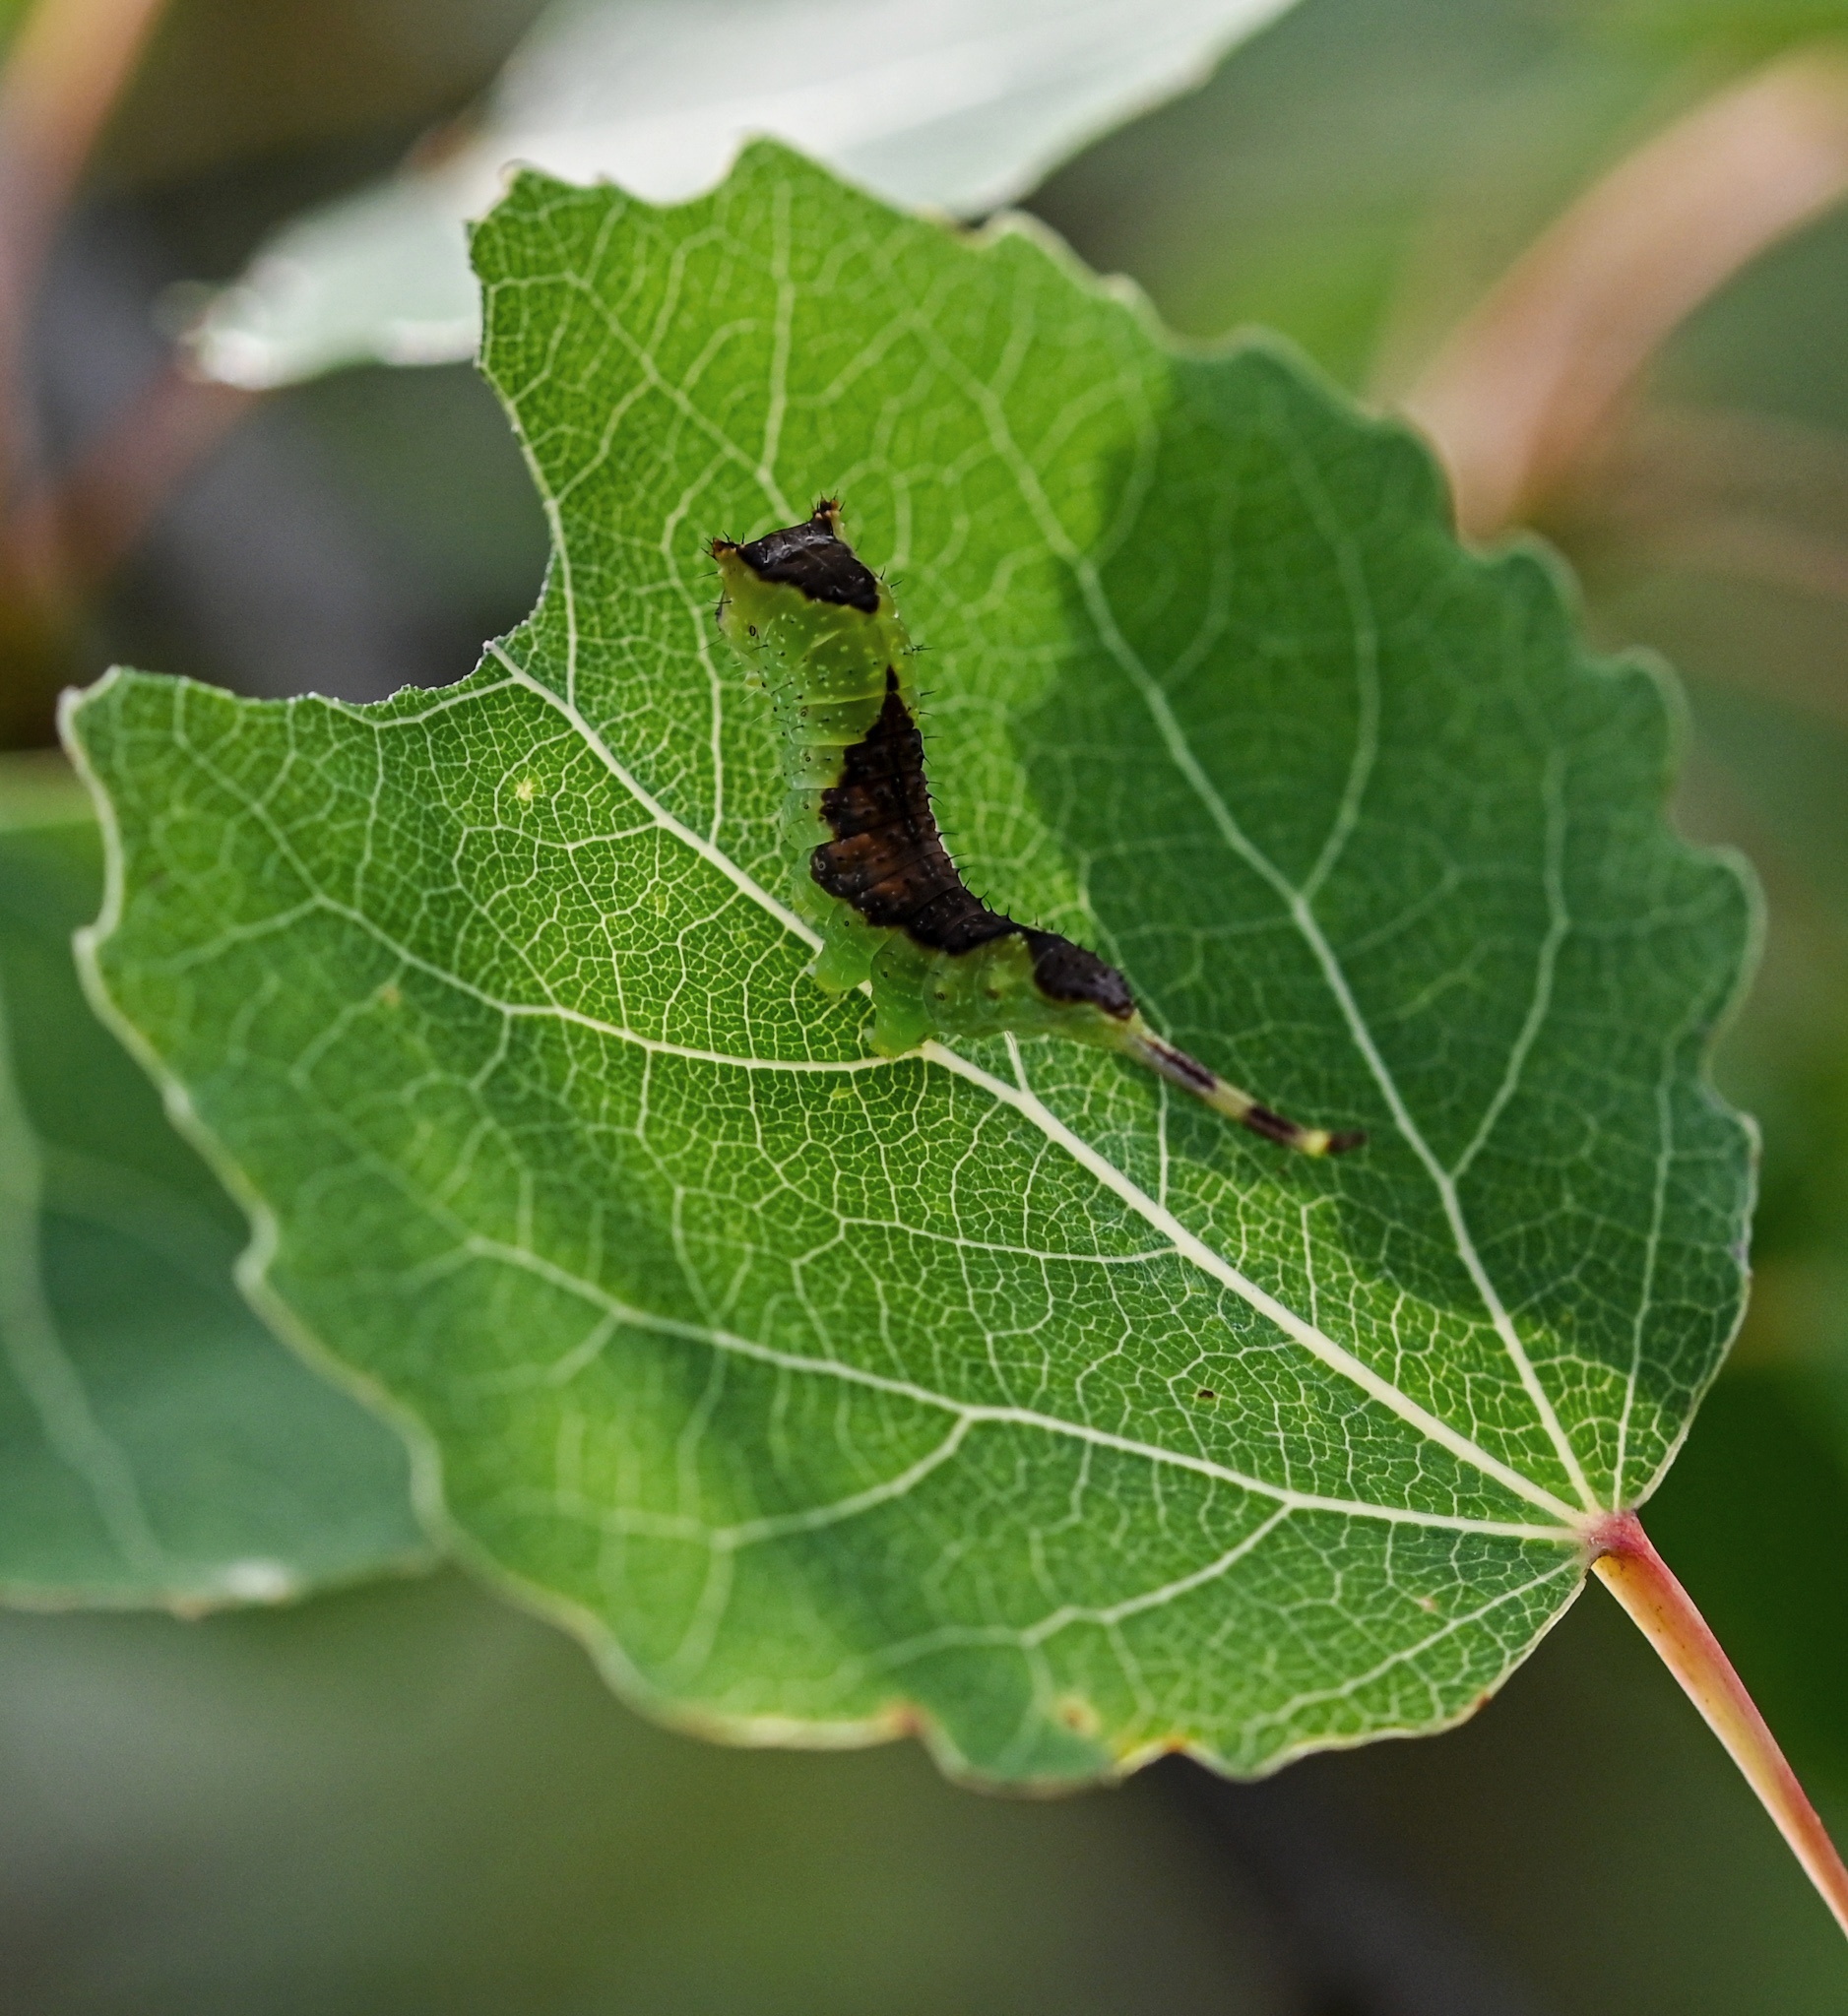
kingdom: Animalia
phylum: Arthropoda
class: Insecta
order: Lepidoptera
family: Notodontidae
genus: Furcula
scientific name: Furcula bifida
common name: Poplar kitten
